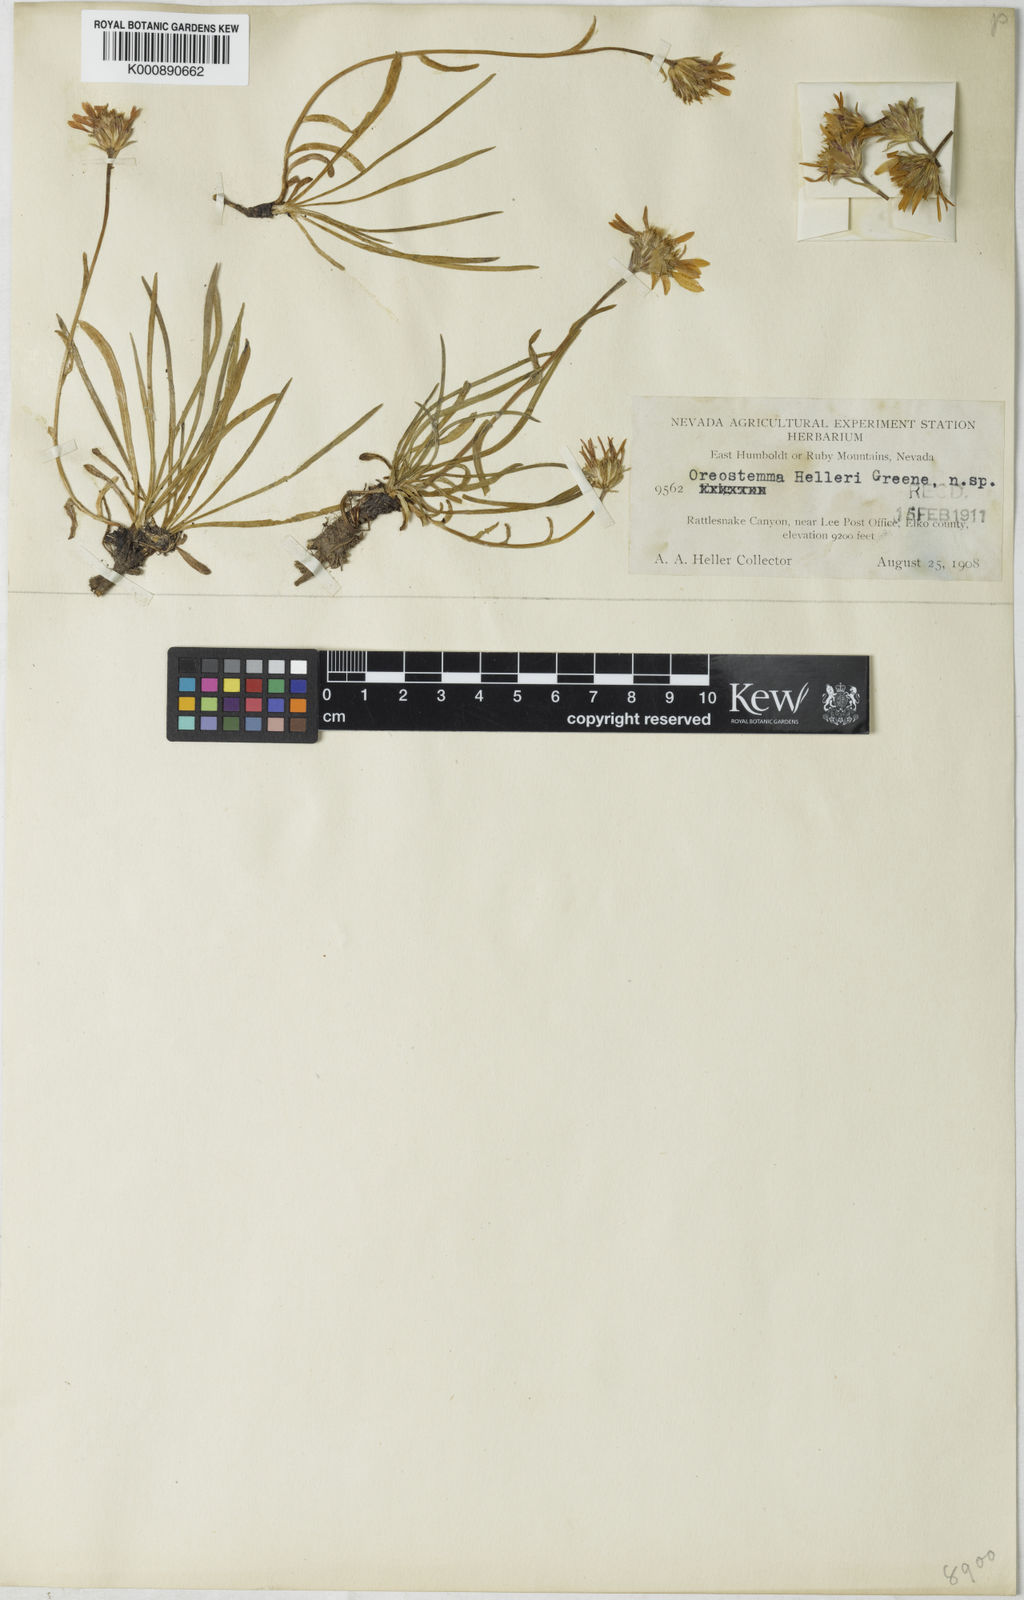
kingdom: Plantae
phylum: Tracheophyta
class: Magnoliopsida
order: Asterales
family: Asteraceae
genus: Aster
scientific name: Aster
